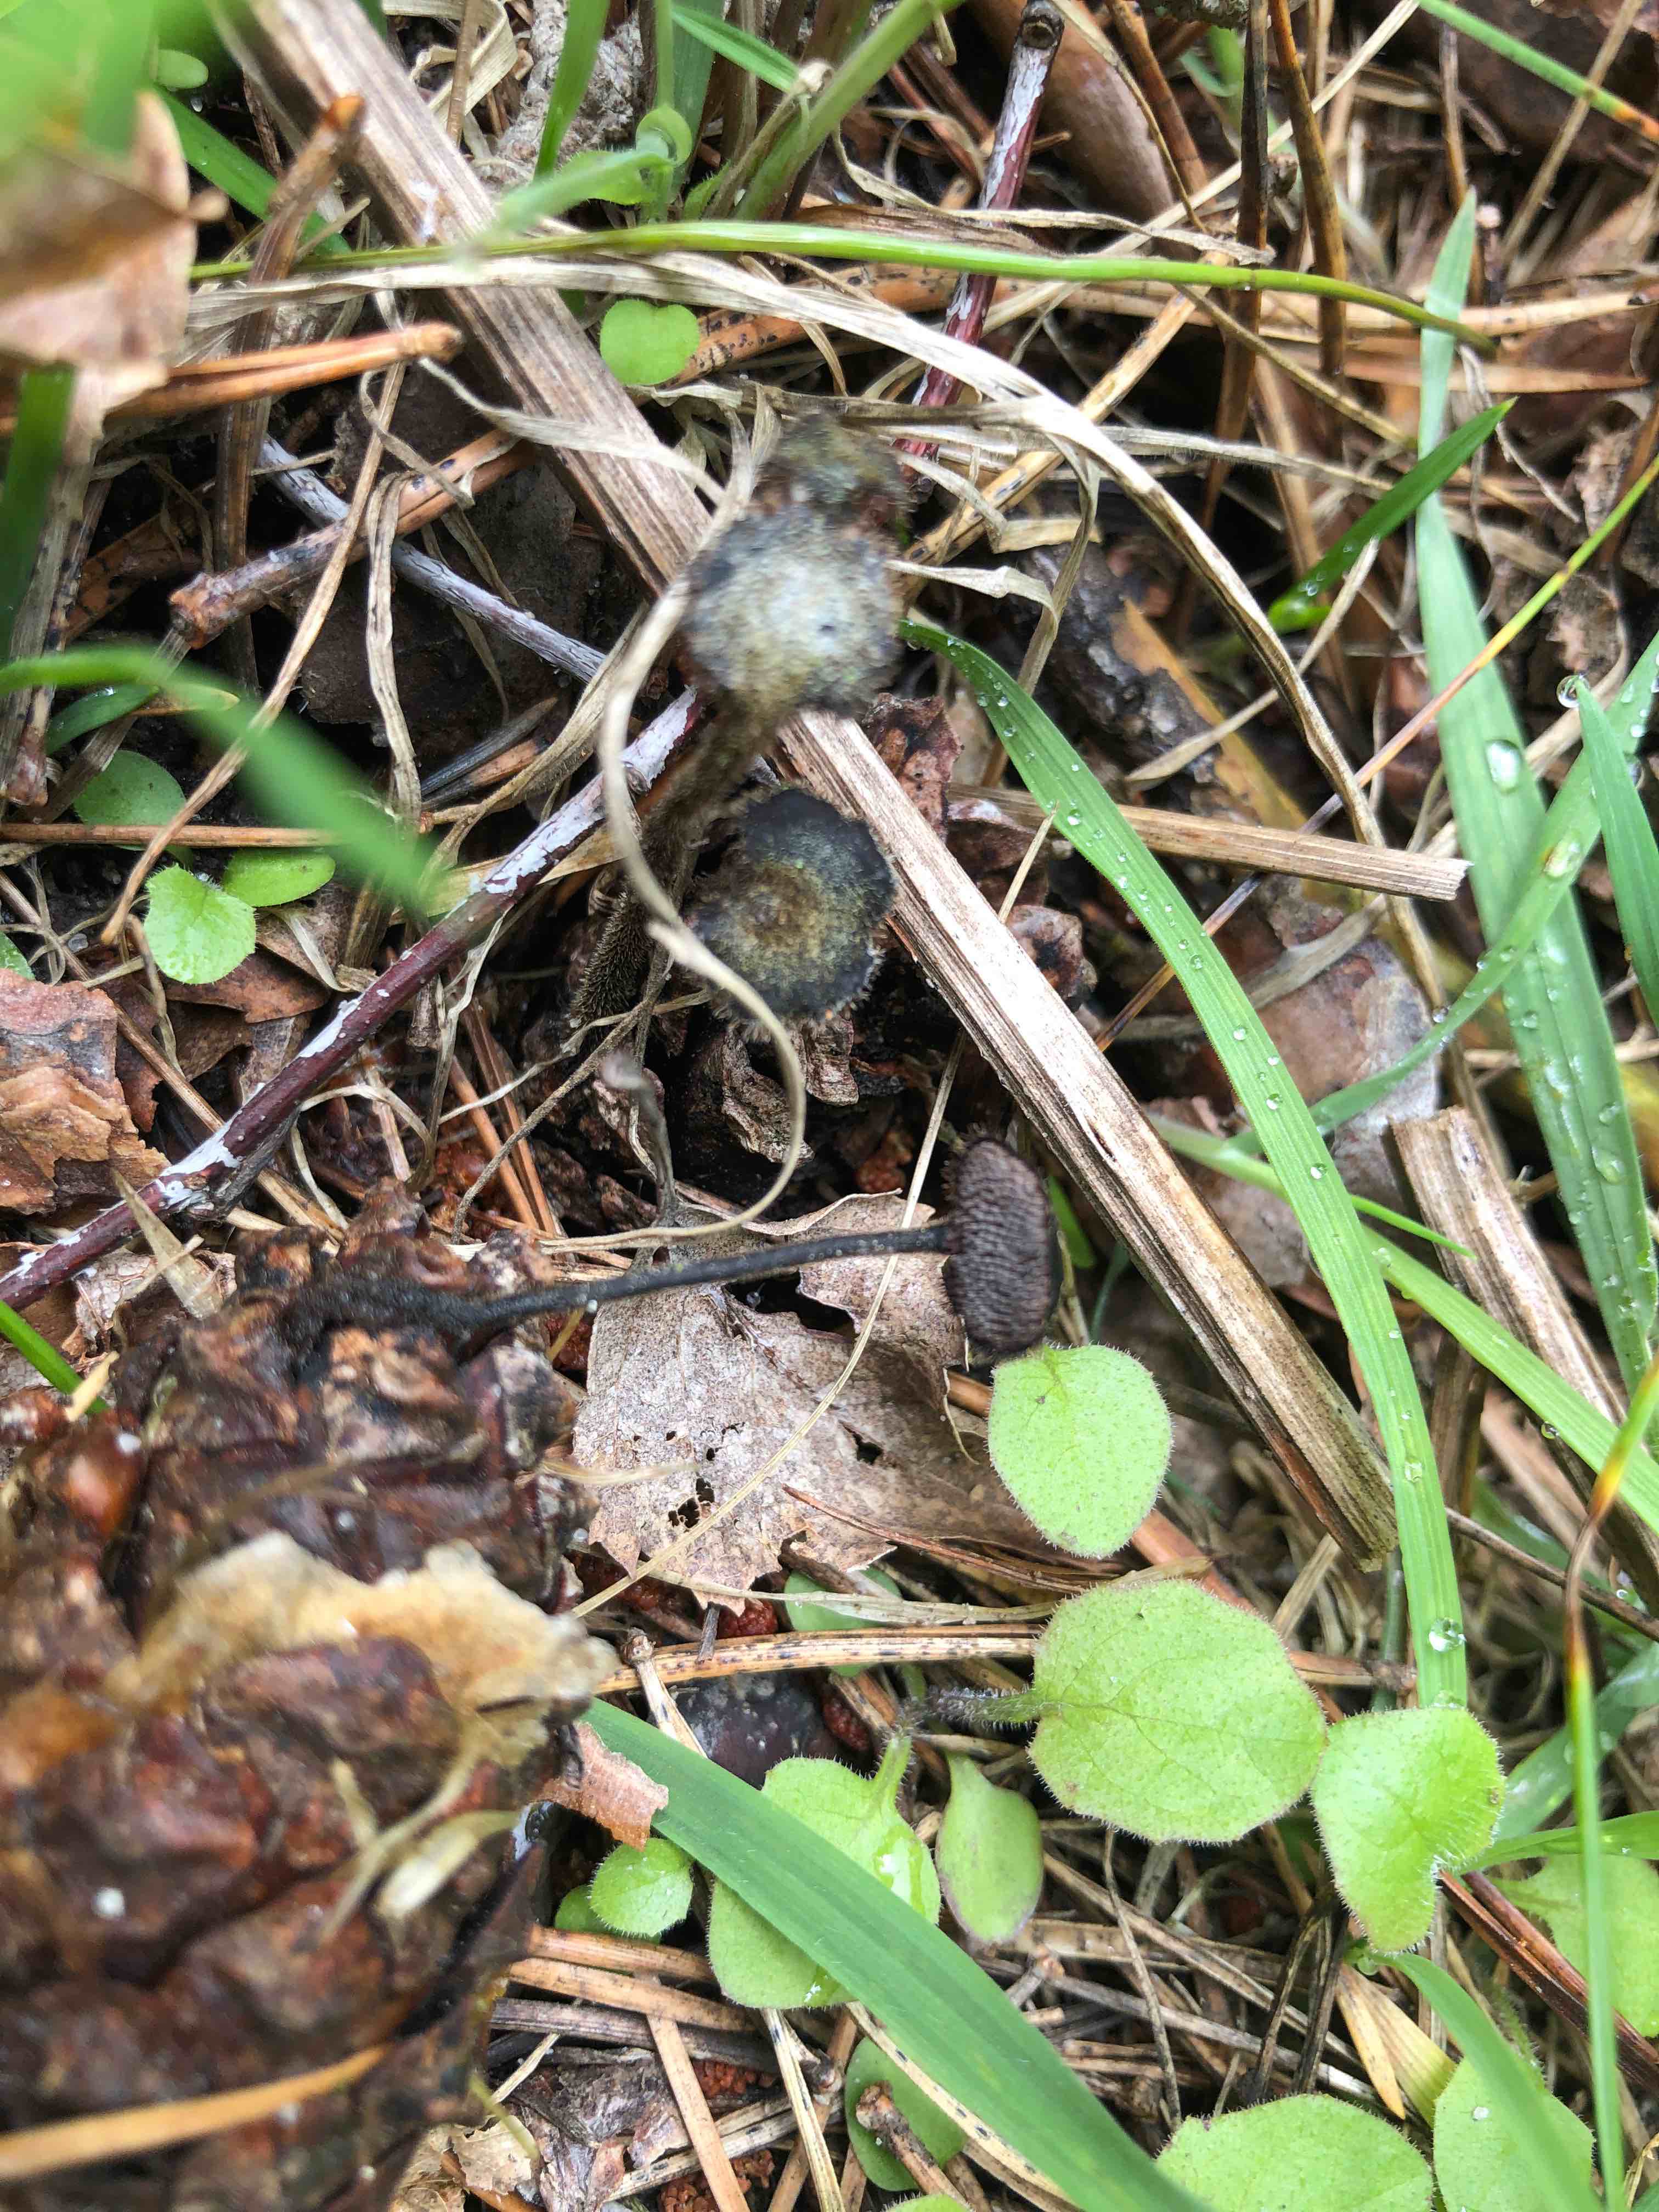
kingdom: Fungi
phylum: Basidiomycota
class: Agaricomycetes
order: Russulales
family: Auriscalpiaceae
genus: Auriscalpium
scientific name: Auriscalpium vulgare
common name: koglepigsvamp
